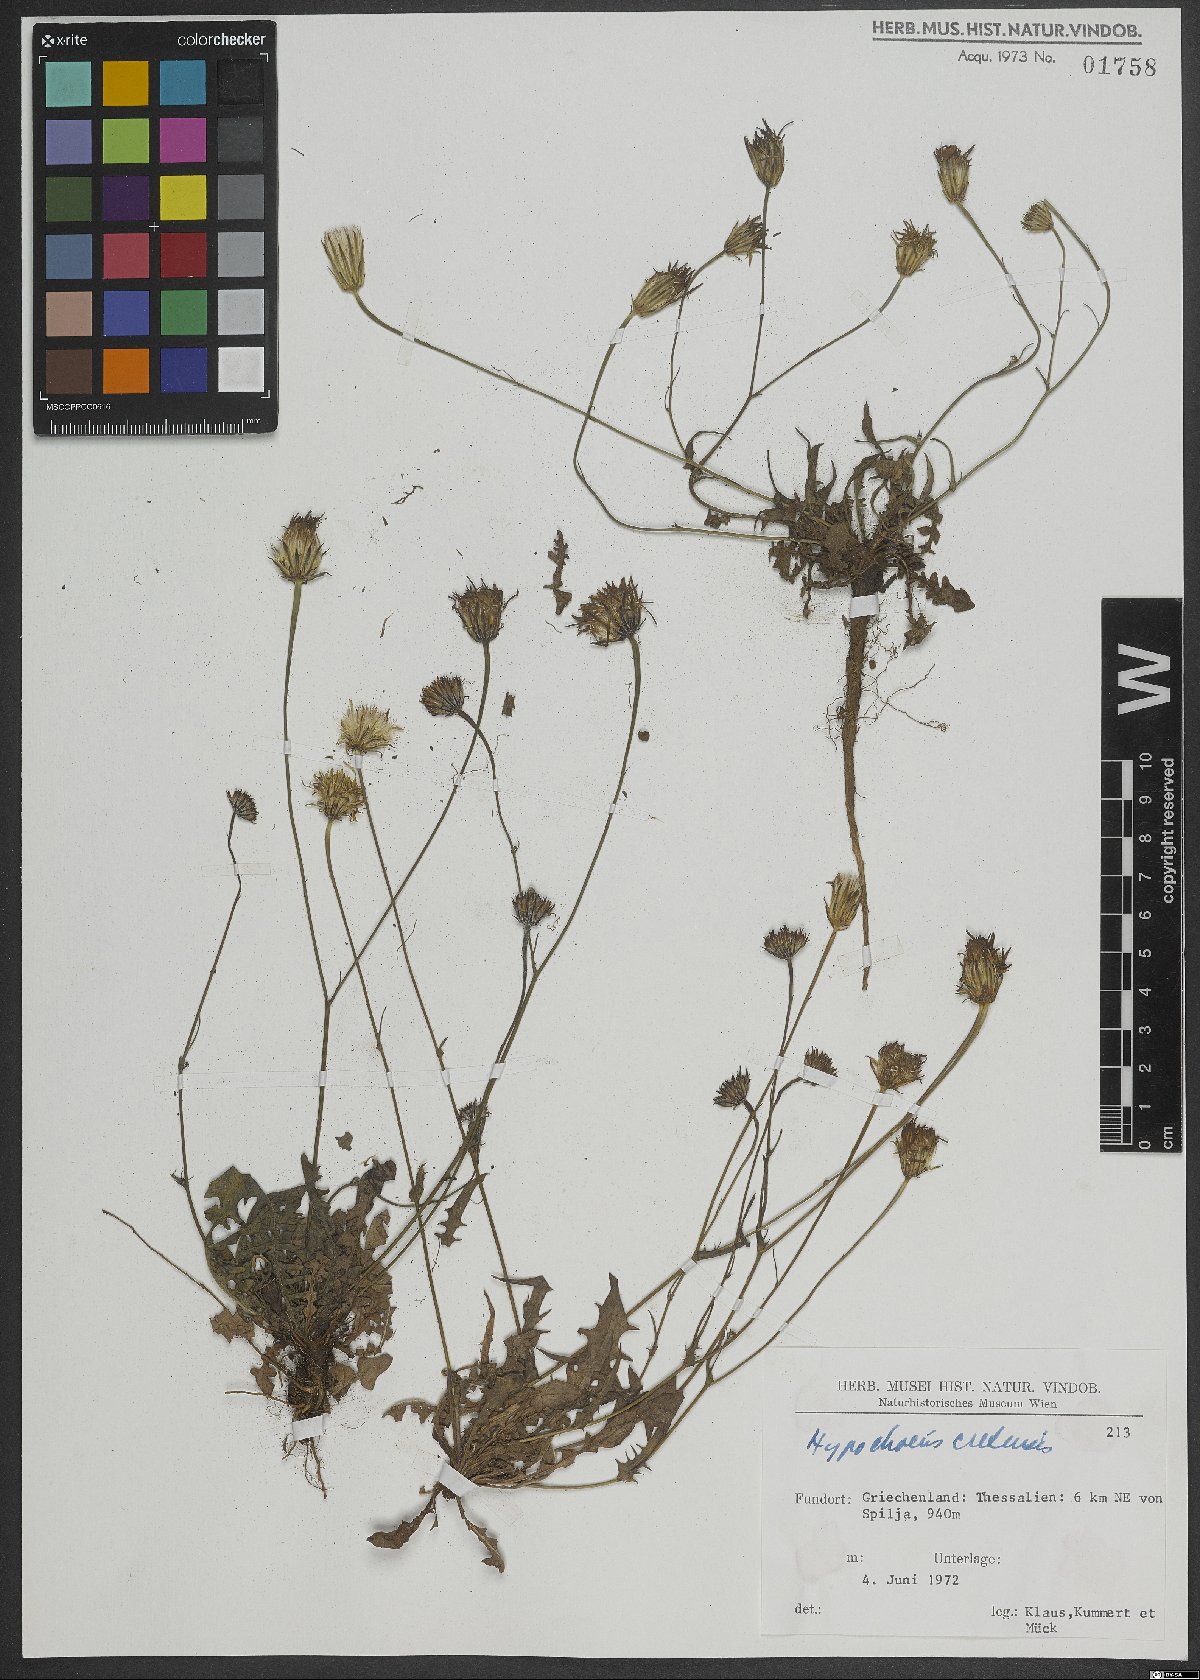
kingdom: Plantae
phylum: Tracheophyta
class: Magnoliopsida
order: Asterales
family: Asteraceae
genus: Hypochaeris
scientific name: Hypochaeris cretensis
